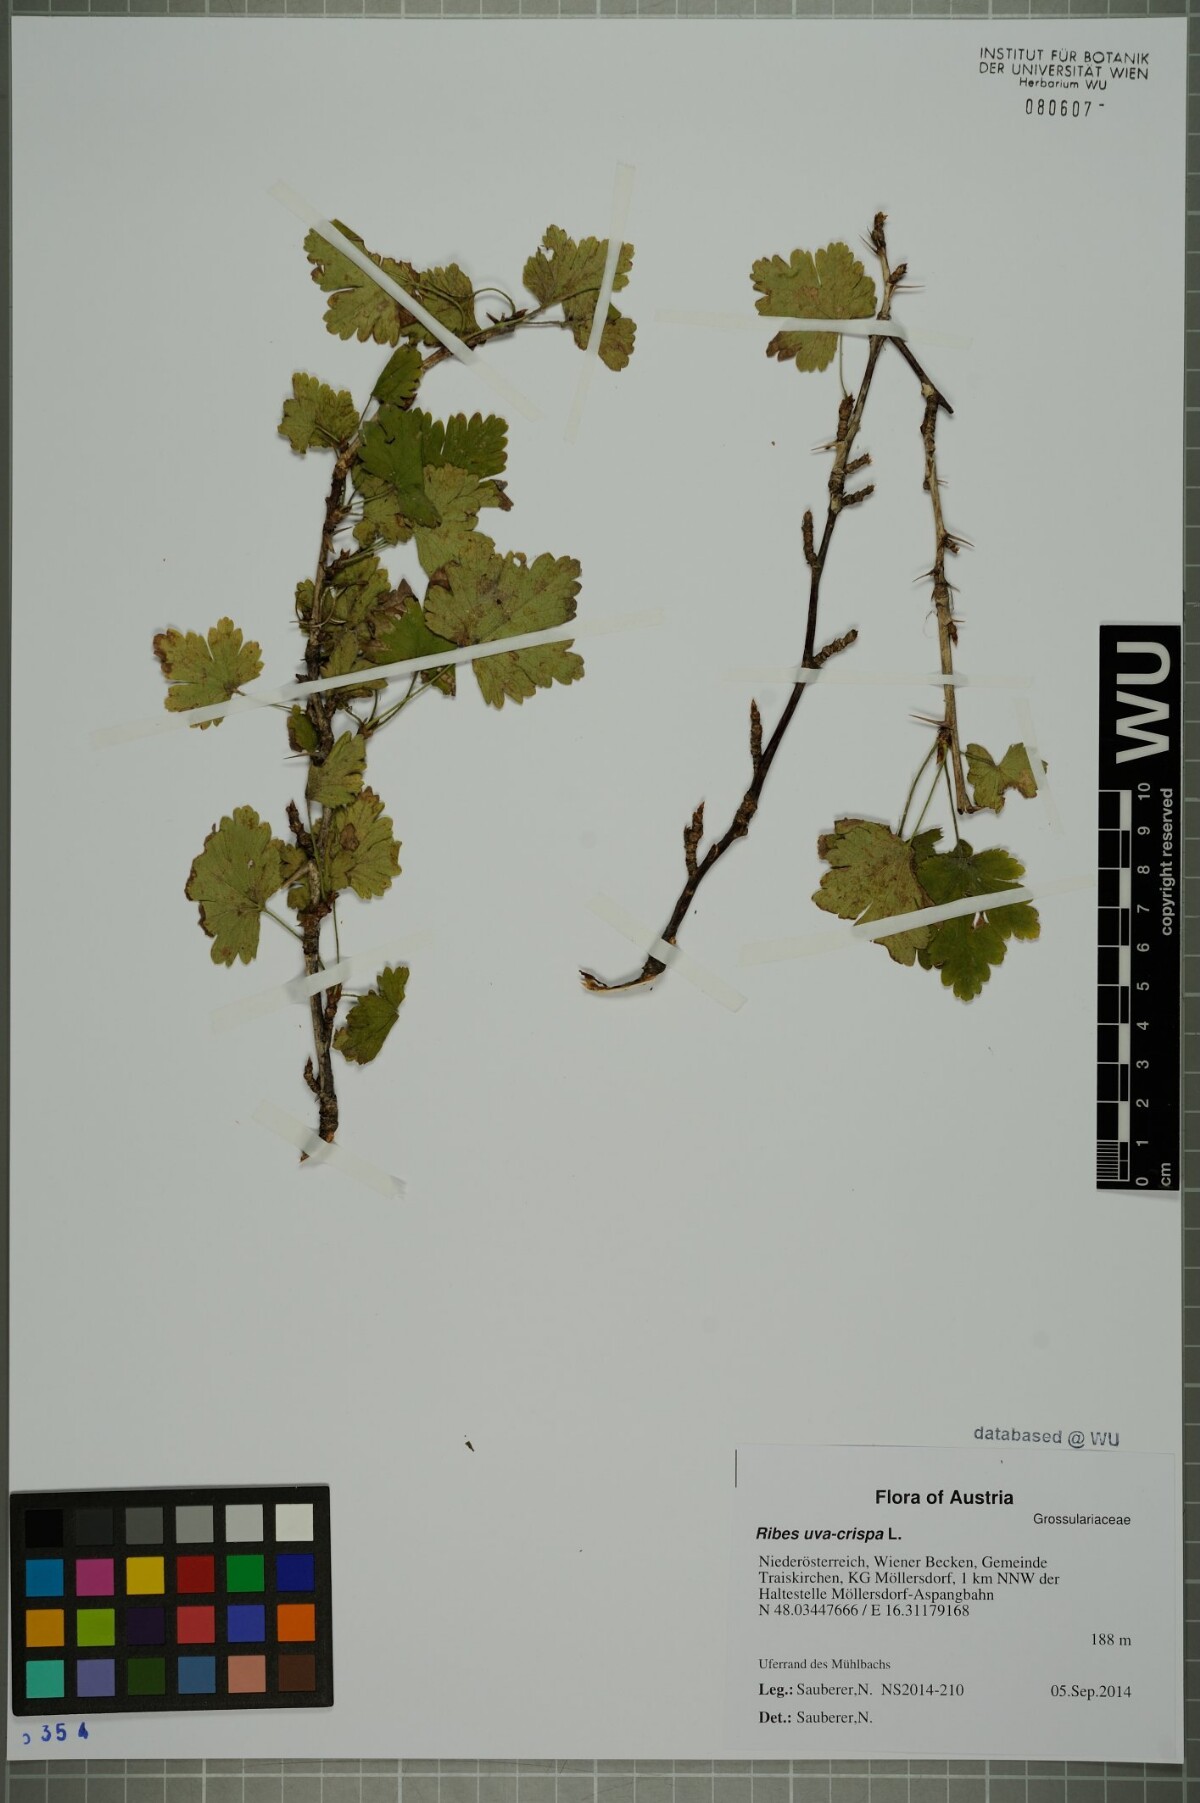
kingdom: Plantae
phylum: Tracheophyta
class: Magnoliopsida
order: Saxifragales
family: Grossulariaceae
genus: Ribes
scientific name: Ribes uva-crispa
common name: Gooseberry
